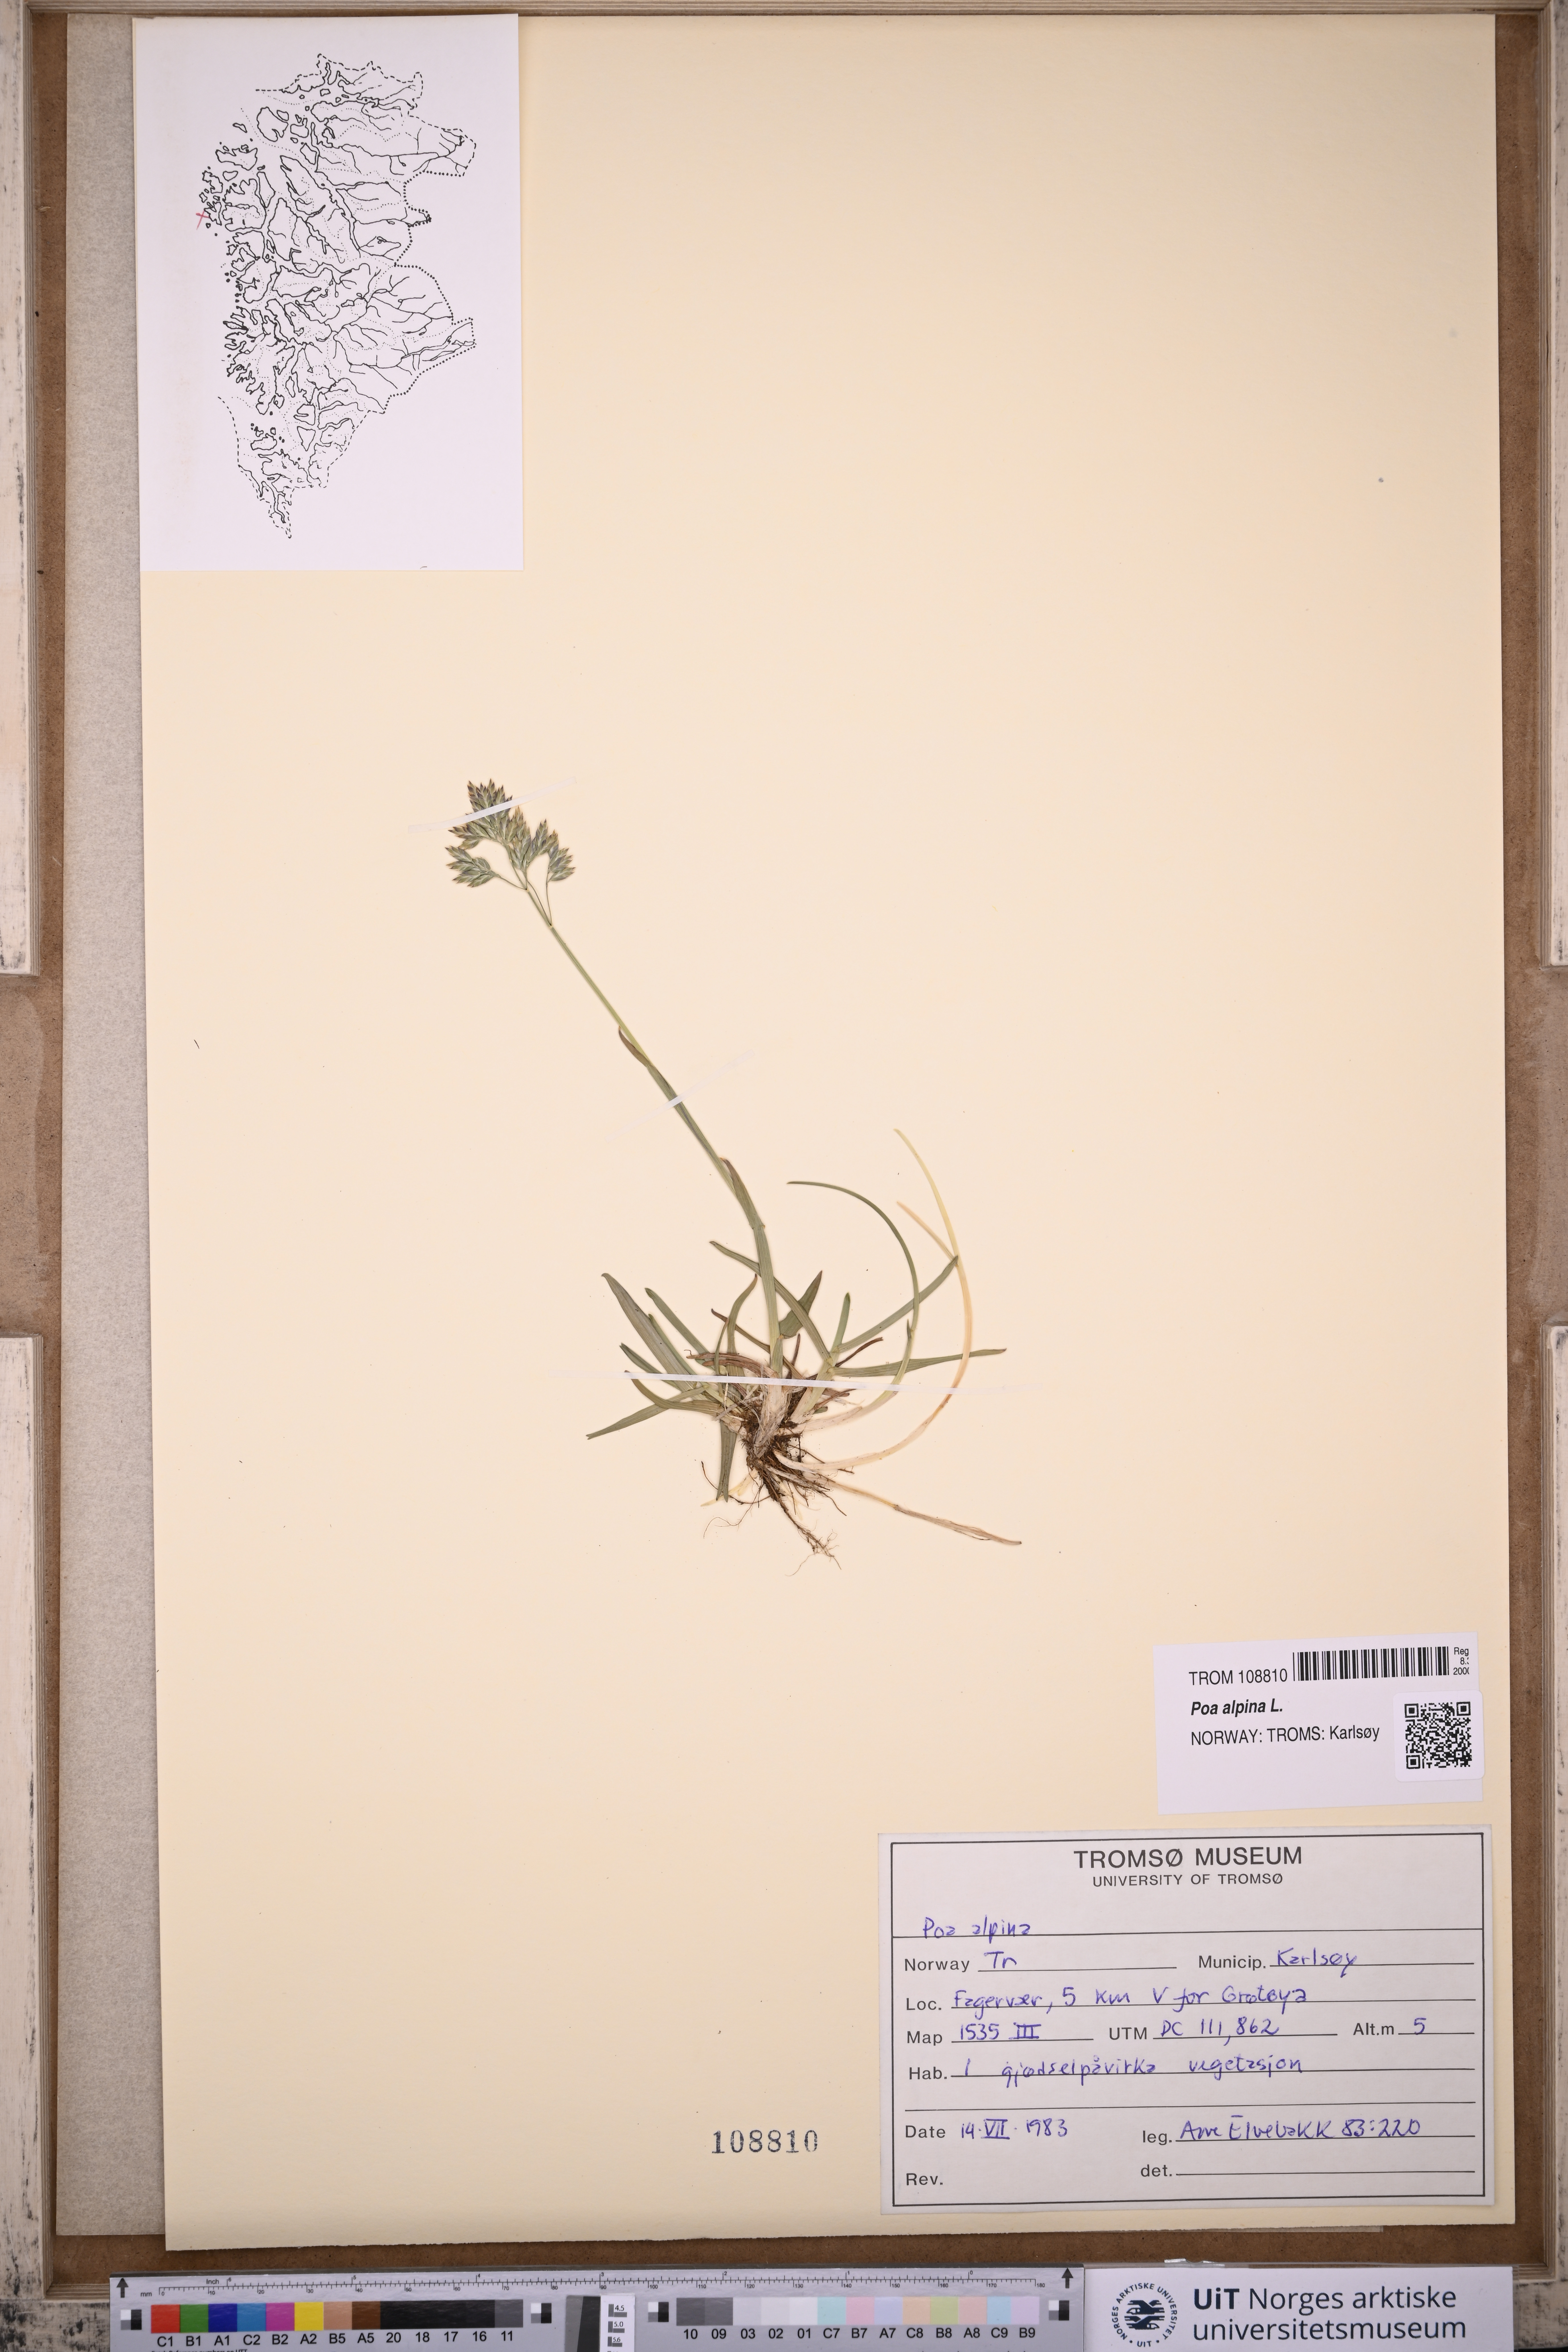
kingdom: Plantae
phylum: Tracheophyta
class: Liliopsida
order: Poales
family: Poaceae
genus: Poa
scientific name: Poa alpina
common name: Alpine bluegrass
